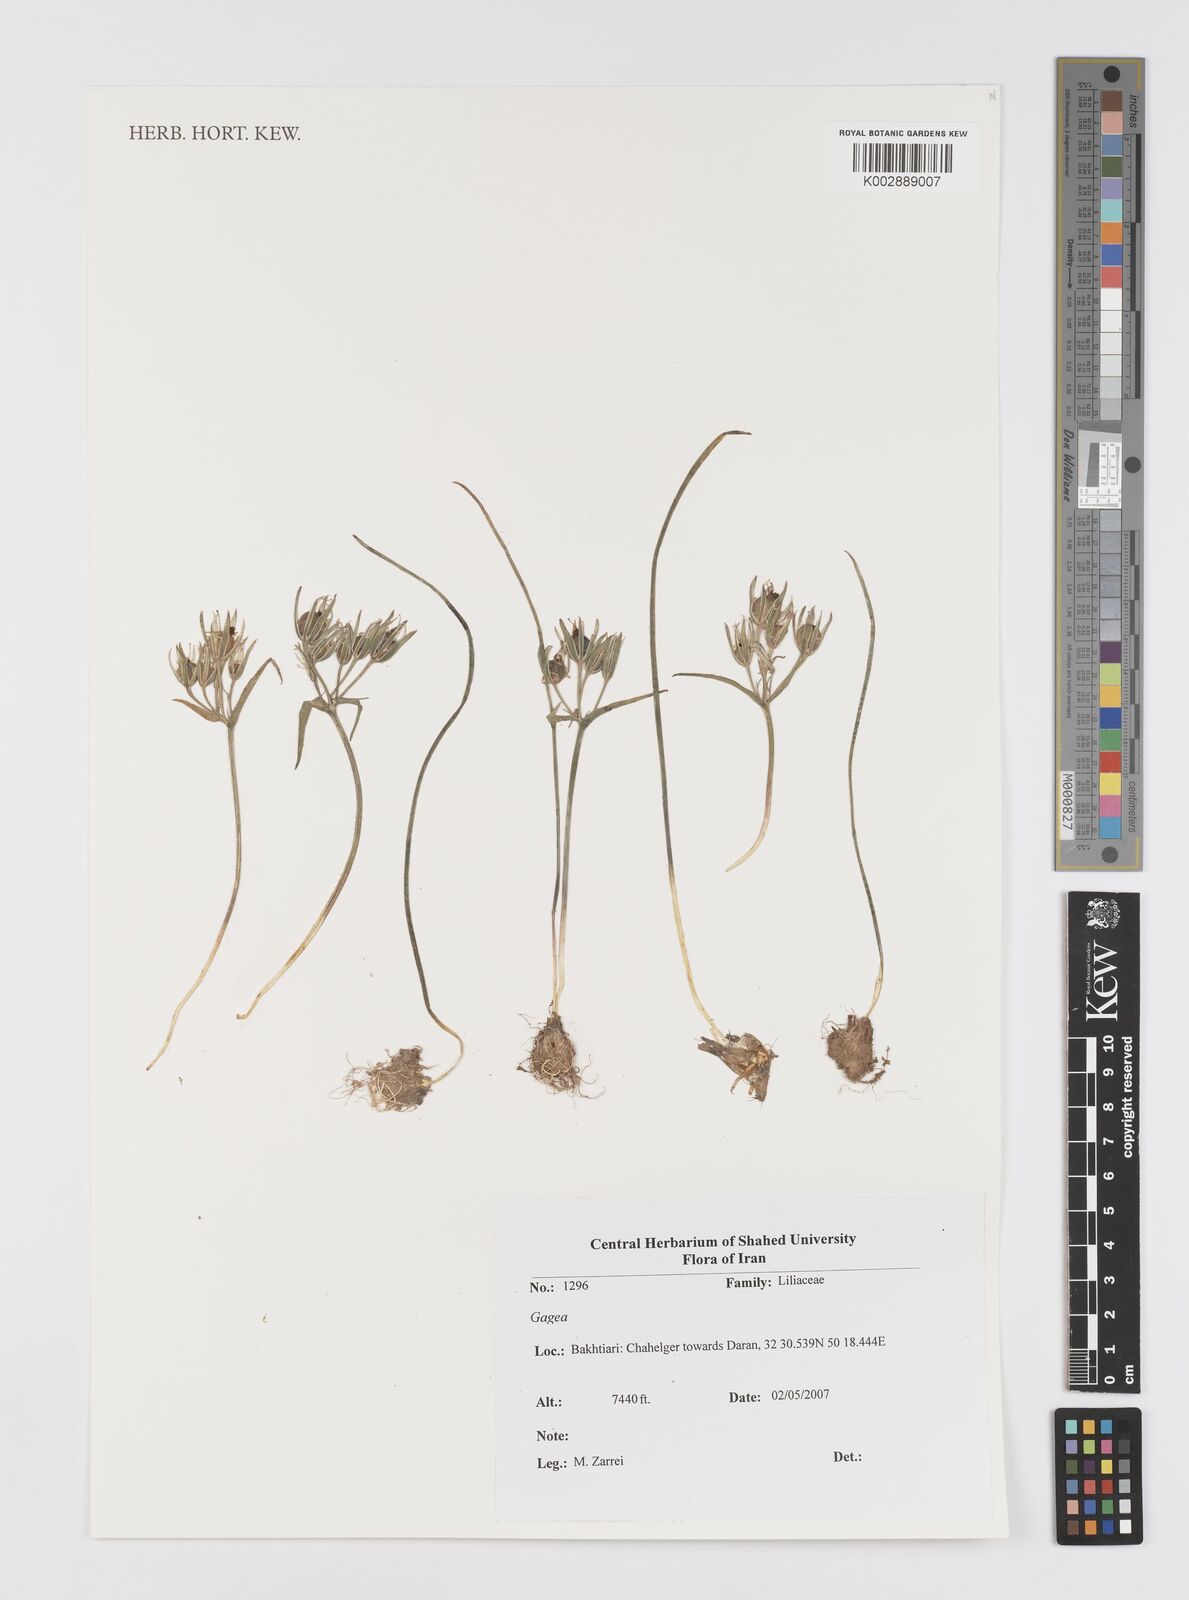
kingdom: Plantae
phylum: Tracheophyta
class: Liliopsida
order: Liliales
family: Liliaceae
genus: Gagea
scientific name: Gagea
